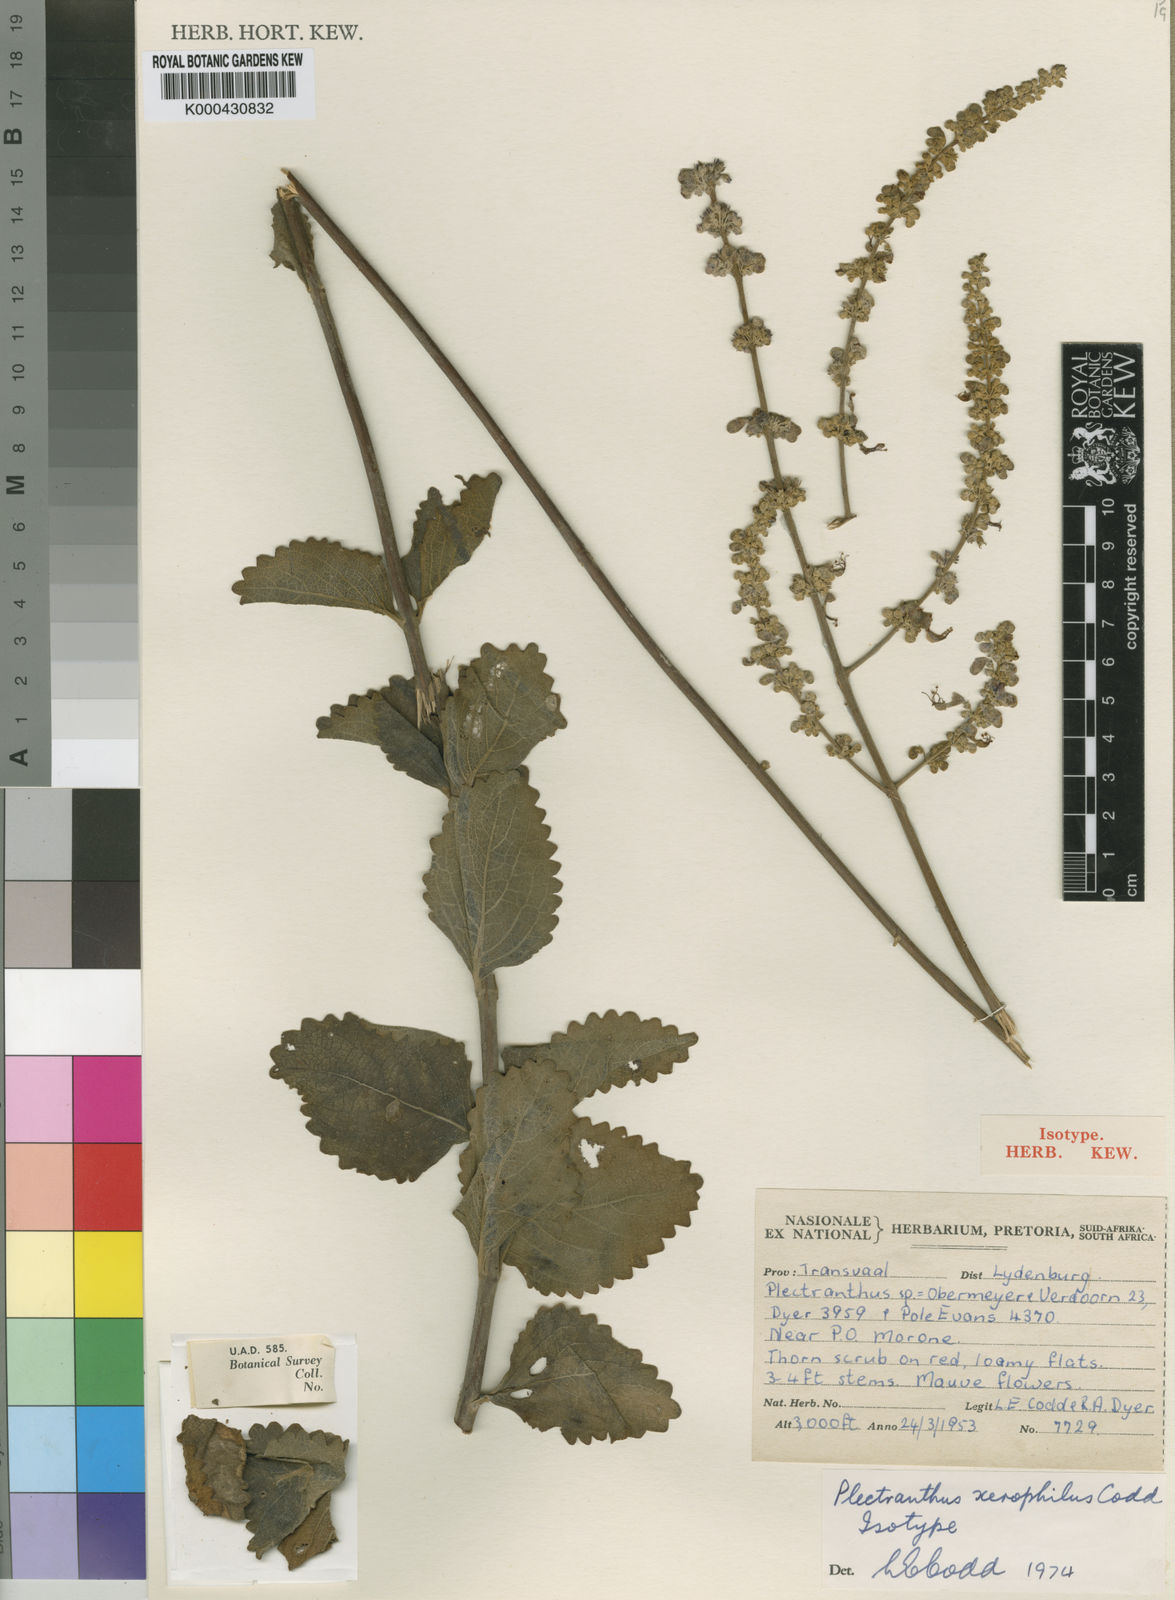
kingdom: Plantae
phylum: Tracheophyta
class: Magnoliopsida
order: Lamiales
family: Lamiaceae
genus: Coleus
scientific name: Coleus xerophilus
